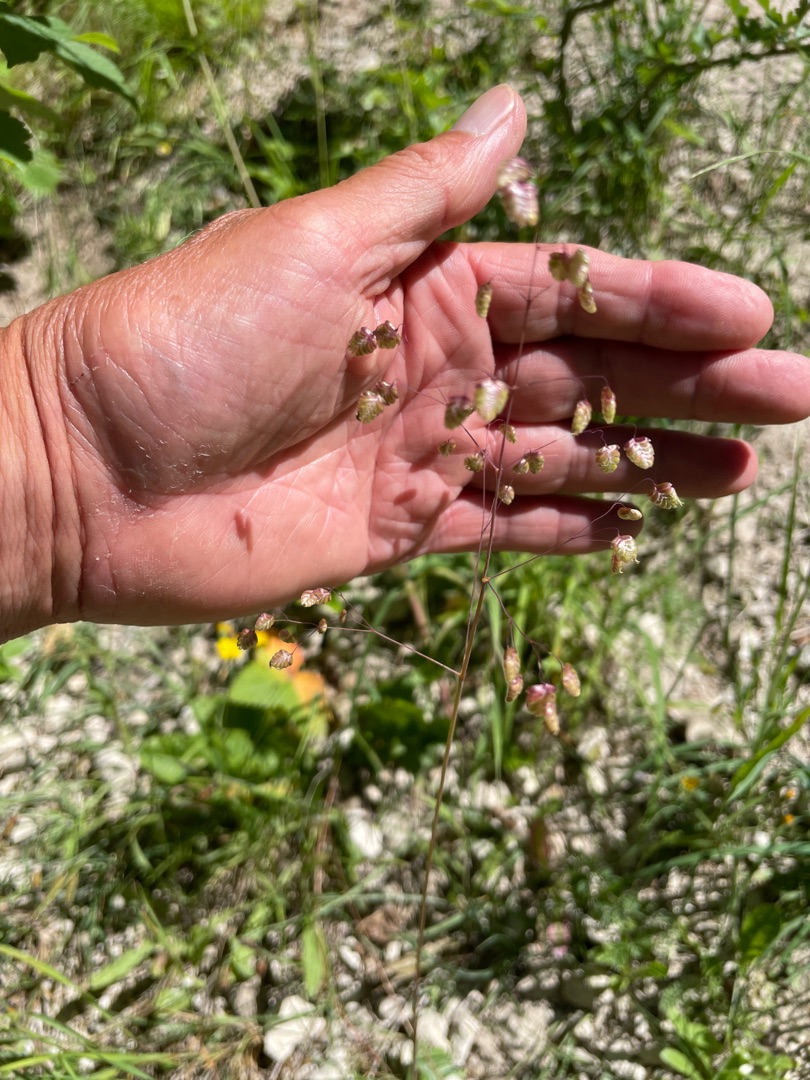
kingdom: Plantae
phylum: Tracheophyta
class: Liliopsida
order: Poales
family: Poaceae
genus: Briza
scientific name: Briza media
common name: Hjertegræs
